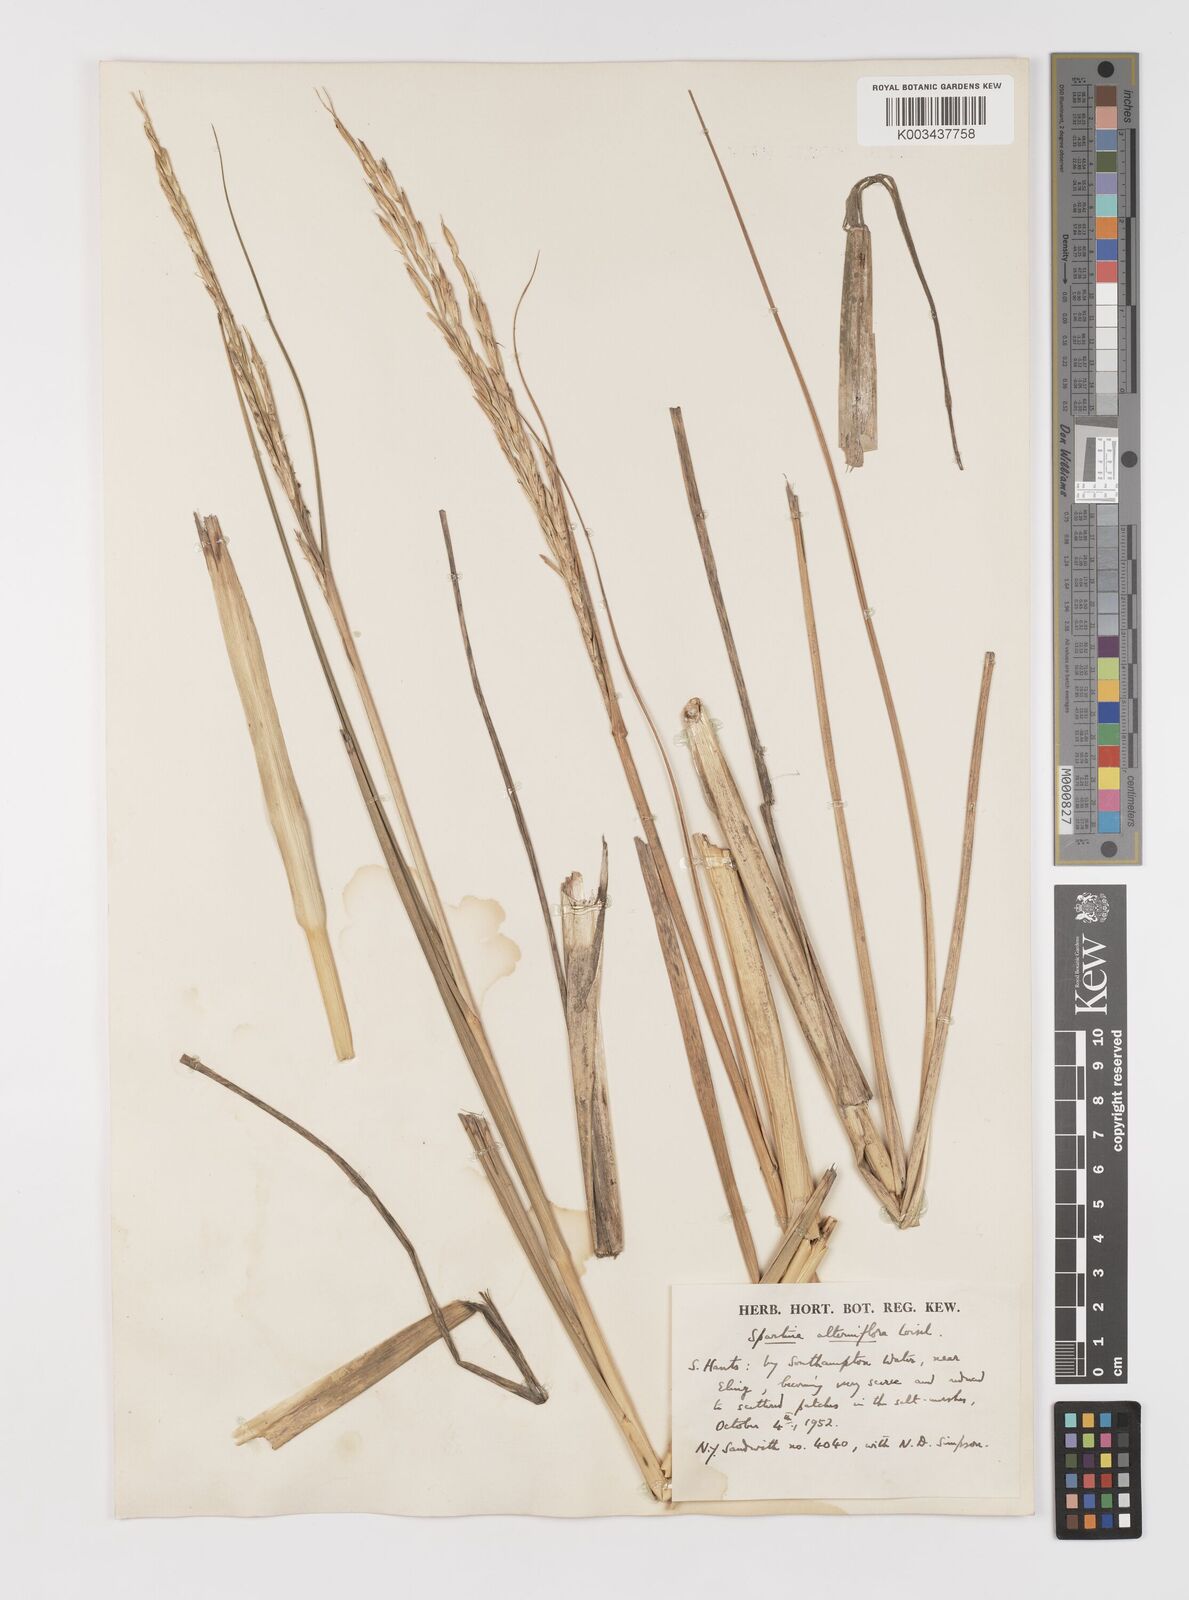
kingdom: Plantae
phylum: Tracheophyta
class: Liliopsida
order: Poales
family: Poaceae
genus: Sporobolus
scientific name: Sporobolus alterniflorus
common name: Atlantic cordgrass
